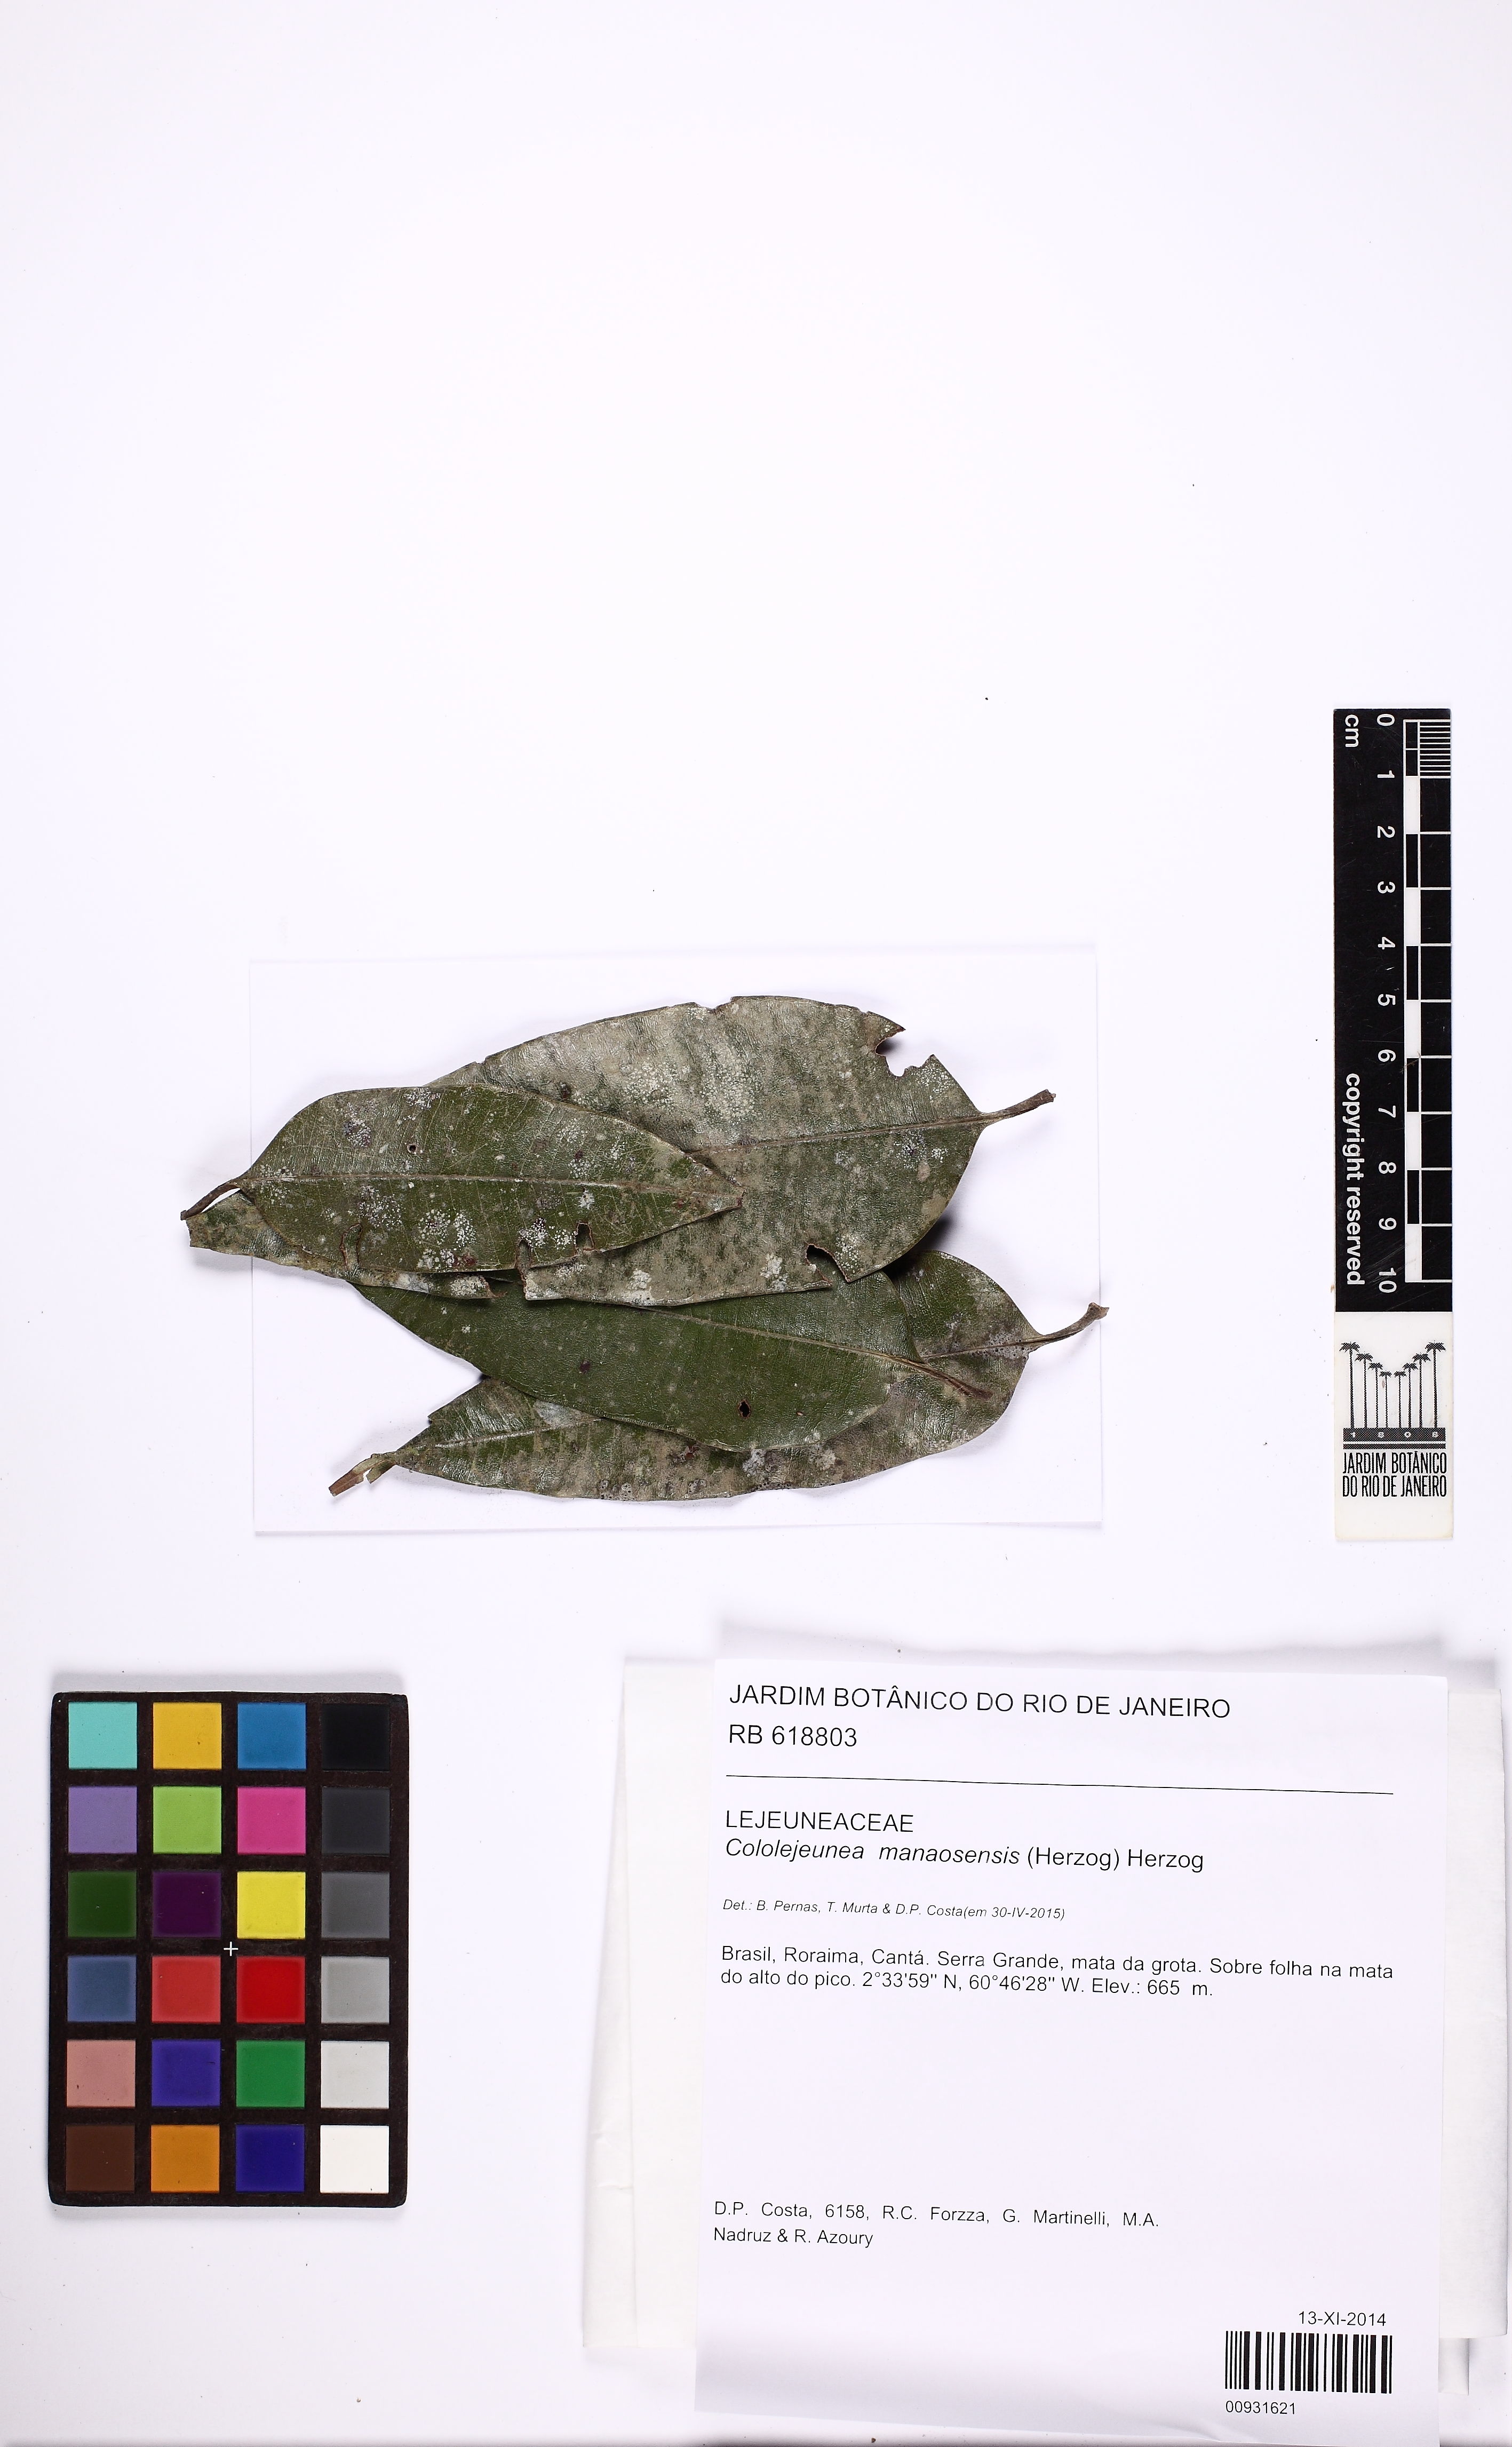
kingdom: Plantae
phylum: Marchantiophyta
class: Jungermanniopsida
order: Porellales
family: Lejeuneaceae
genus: Cololejeunea
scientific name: Cololejeunea subscariosa
